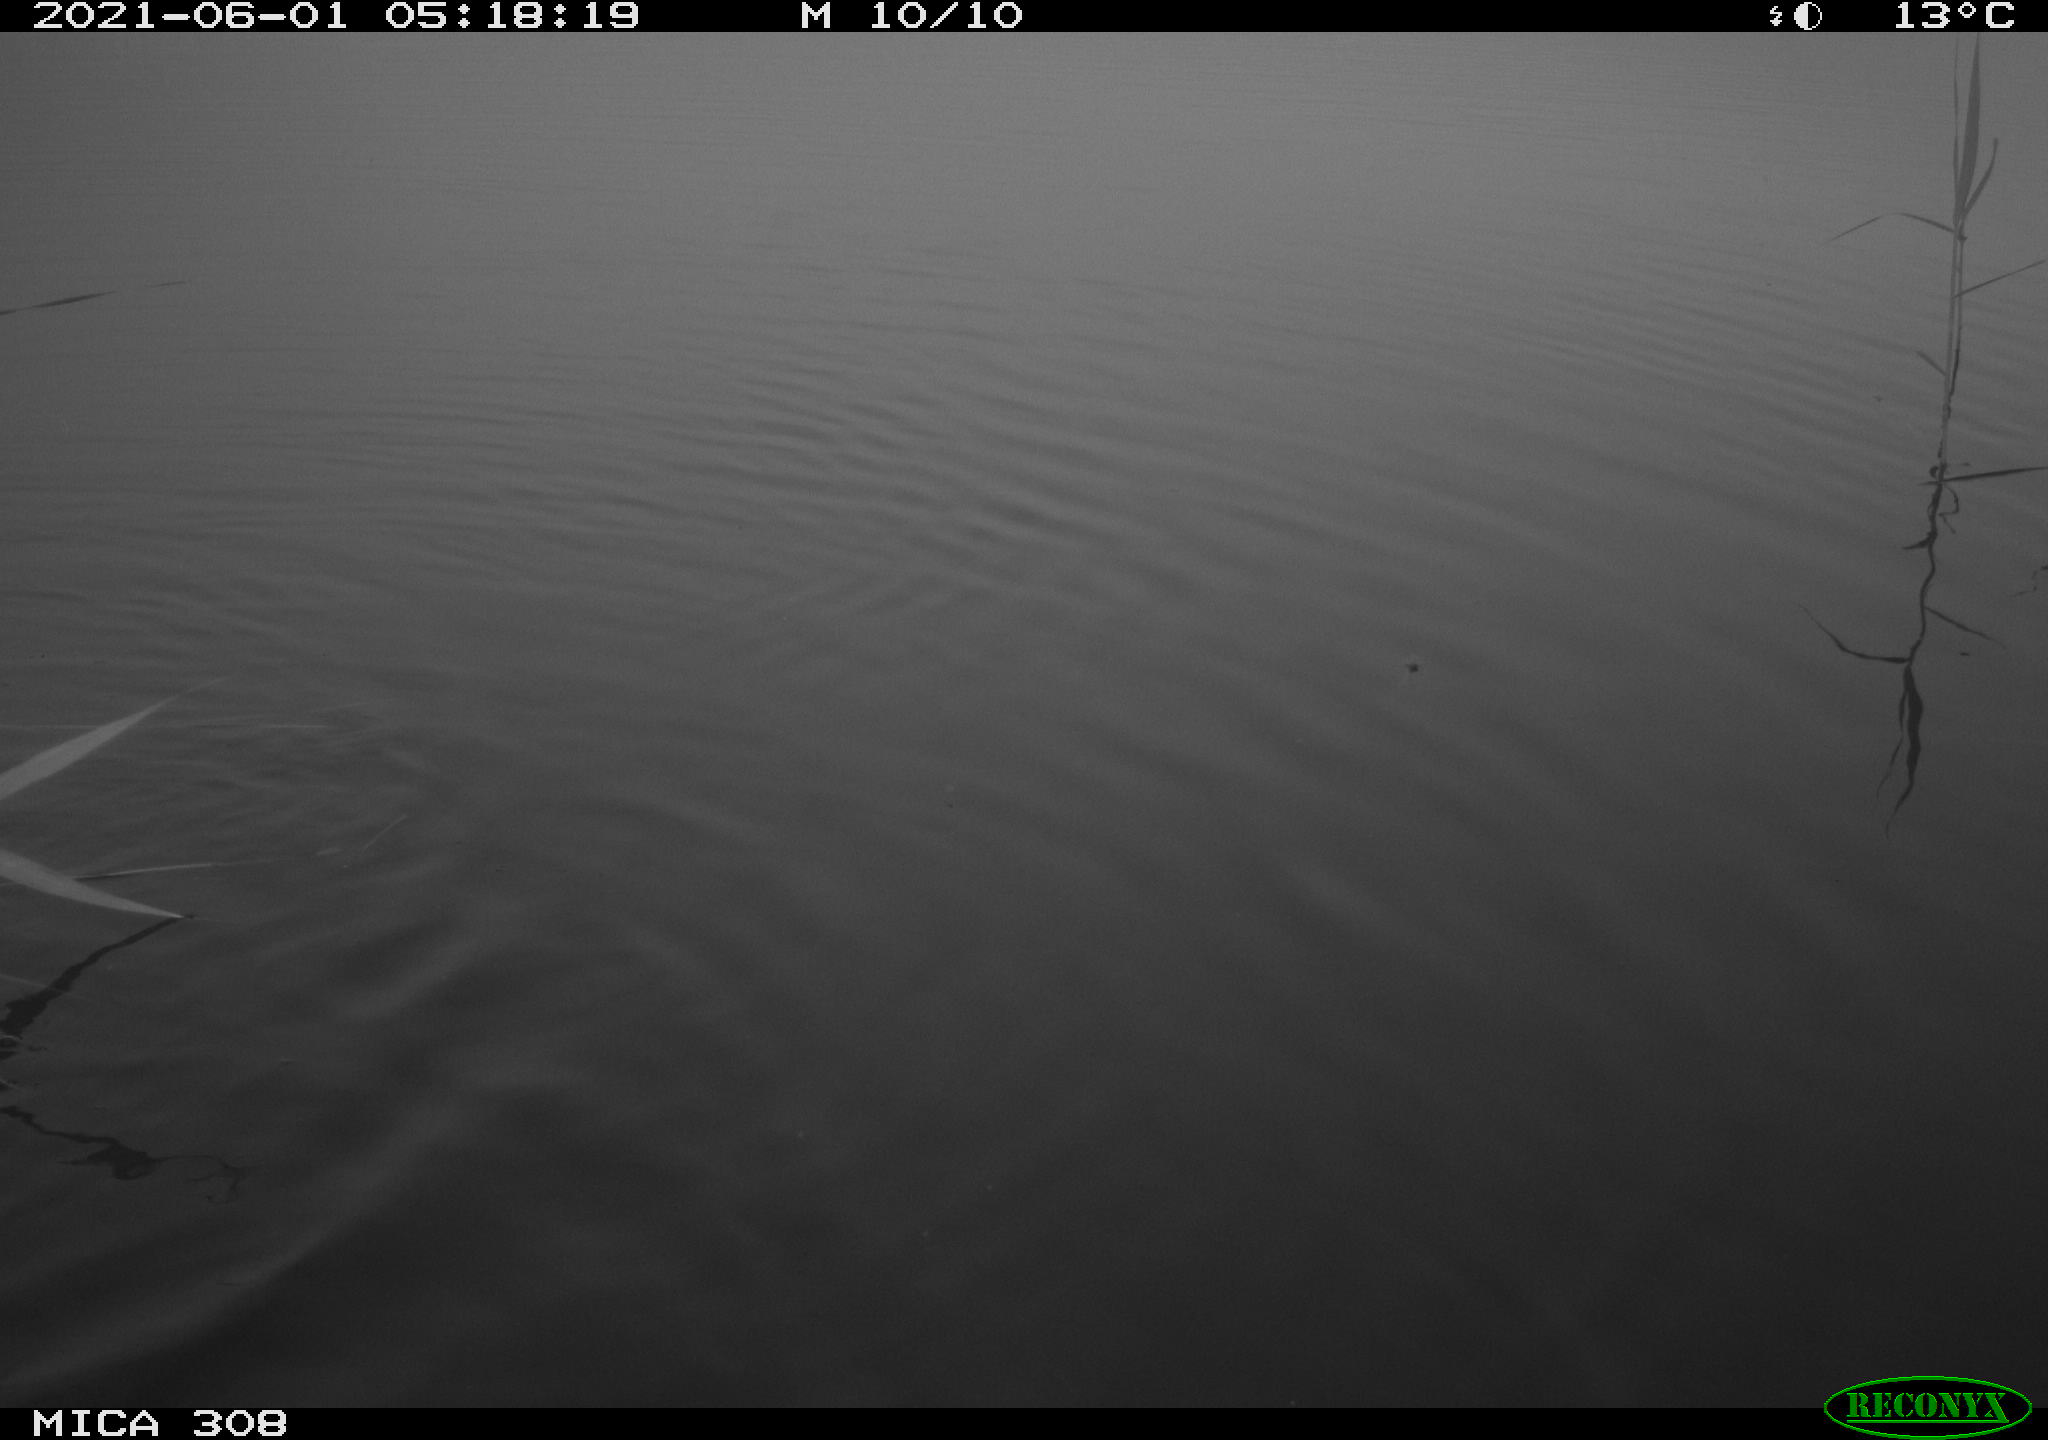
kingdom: Animalia
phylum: Chordata
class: Aves
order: Anseriformes
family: Anatidae
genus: Anas
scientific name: Anas platyrhynchos
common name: Mallard
